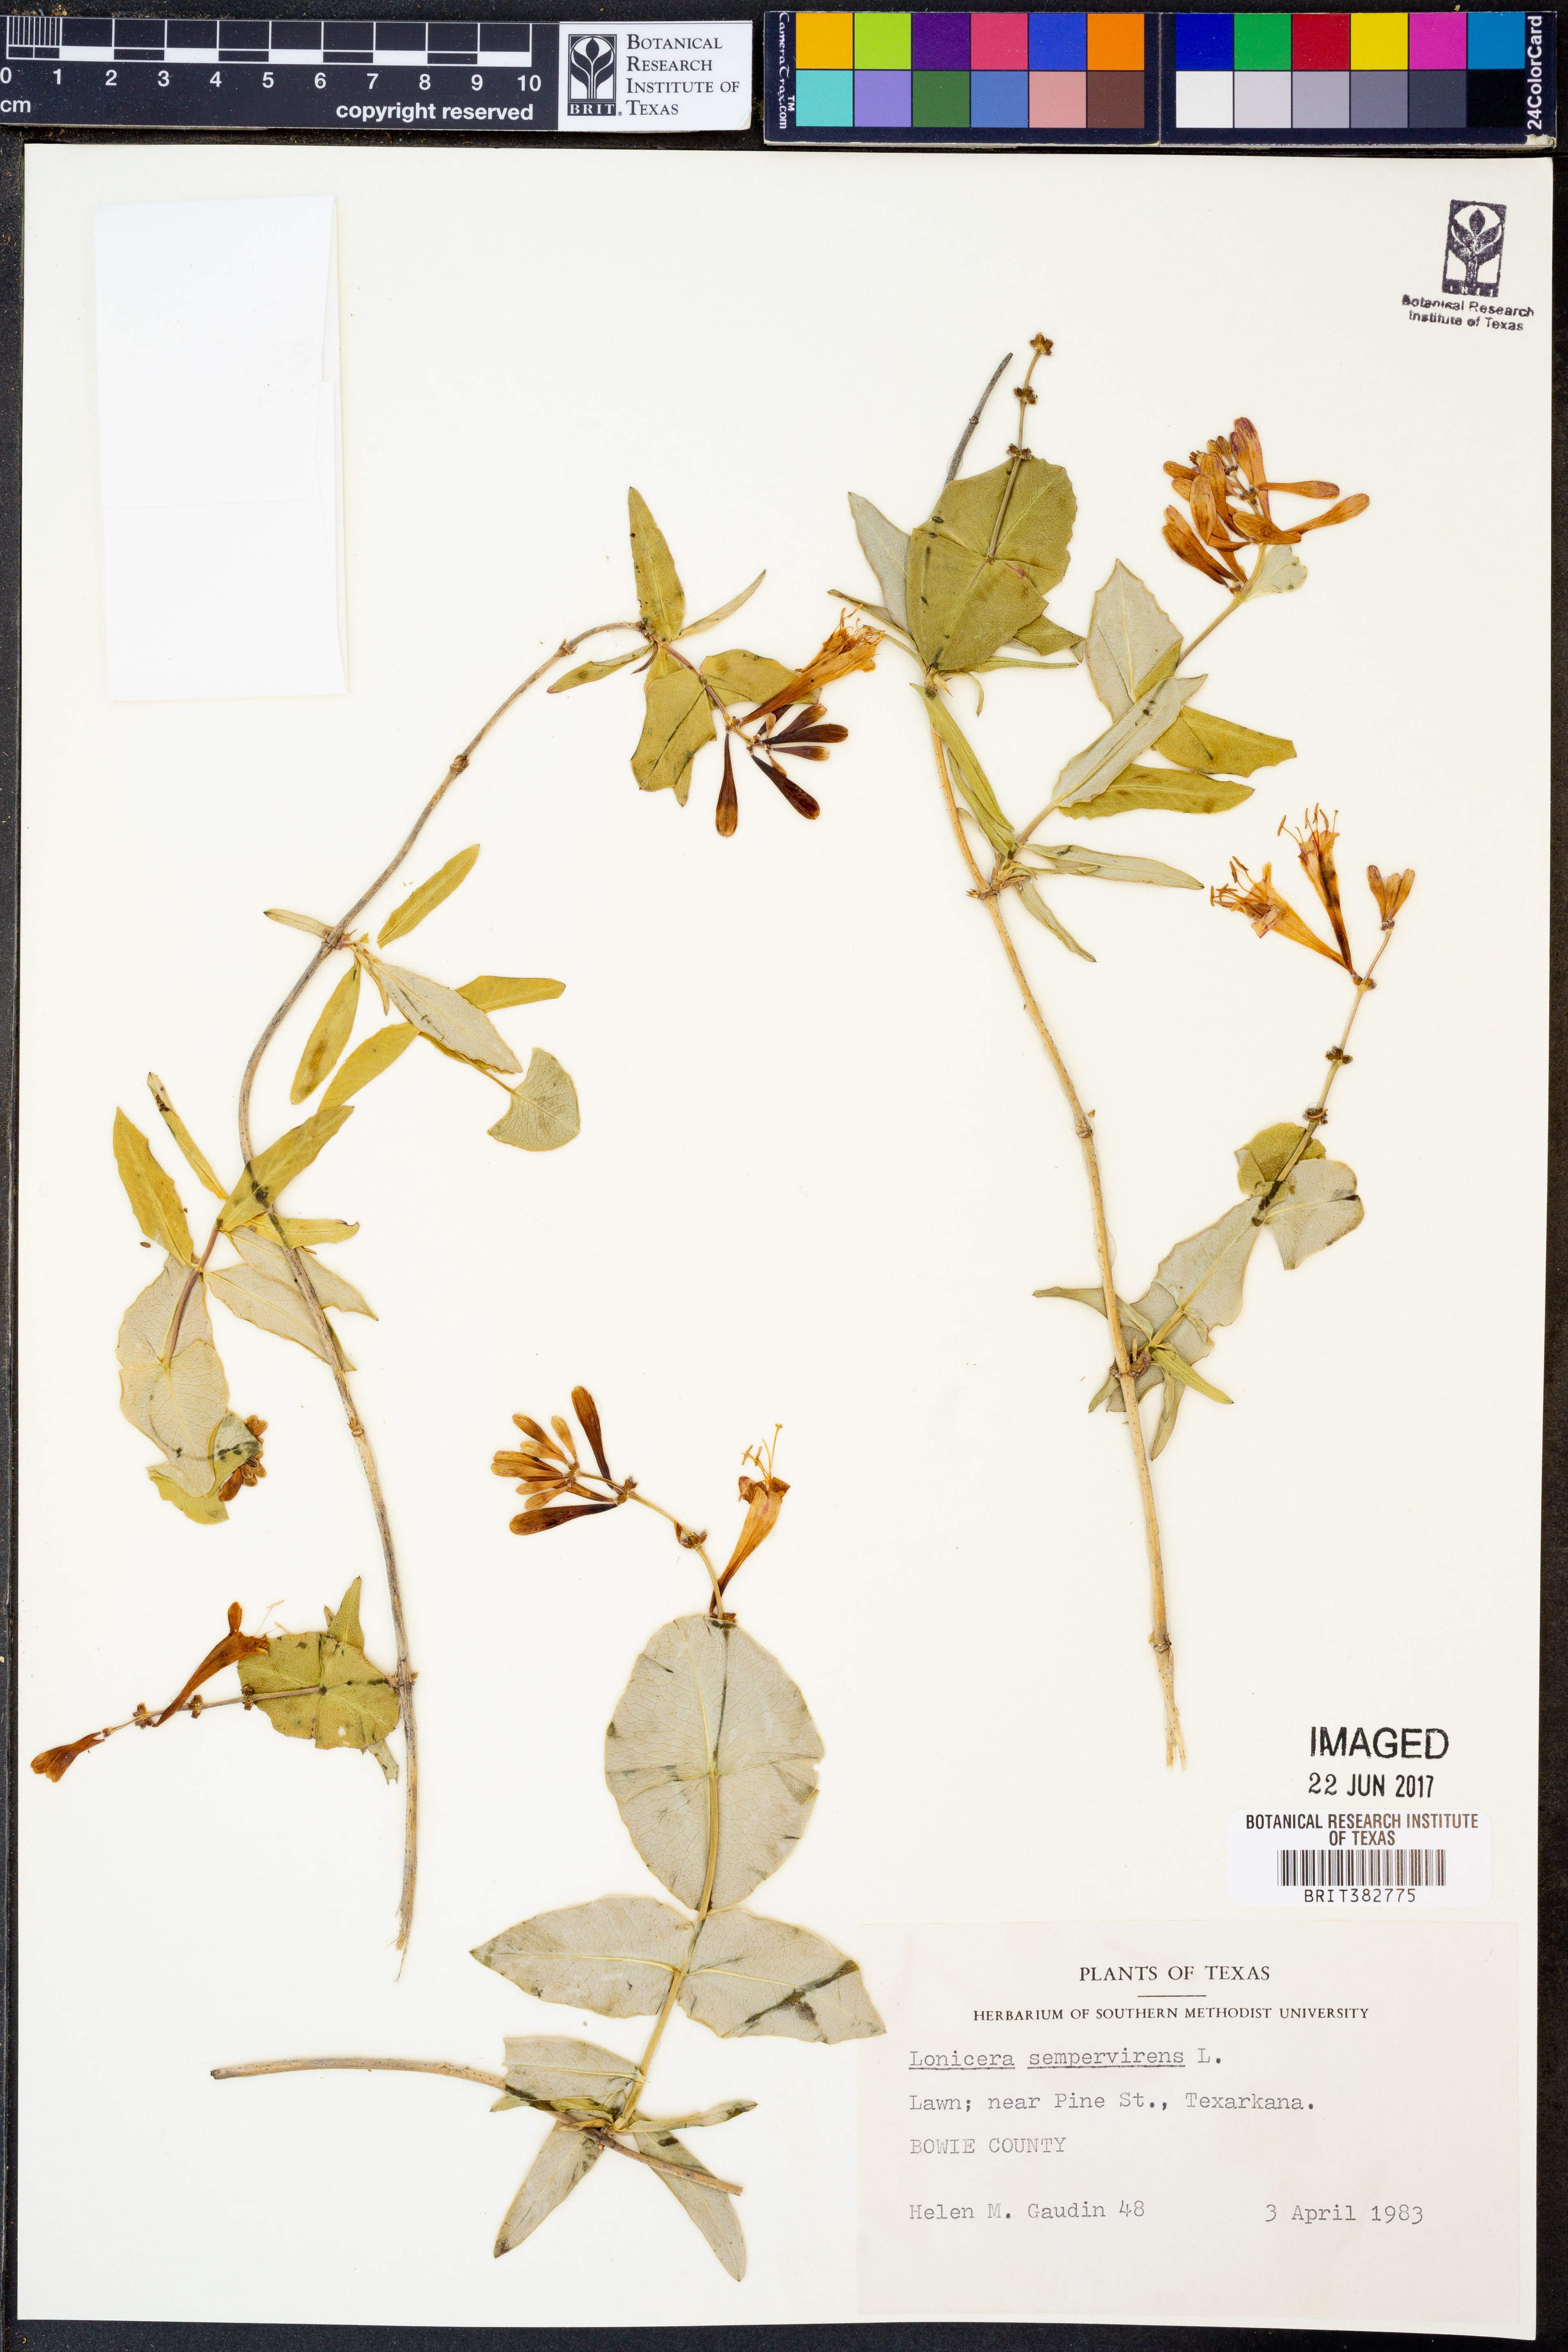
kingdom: Plantae
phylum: Tracheophyta
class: Magnoliopsida
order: Dipsacales
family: Caprifoliaceae
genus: Lonicera
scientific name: Lonicera sempervirens
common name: Coral honeysuckle
